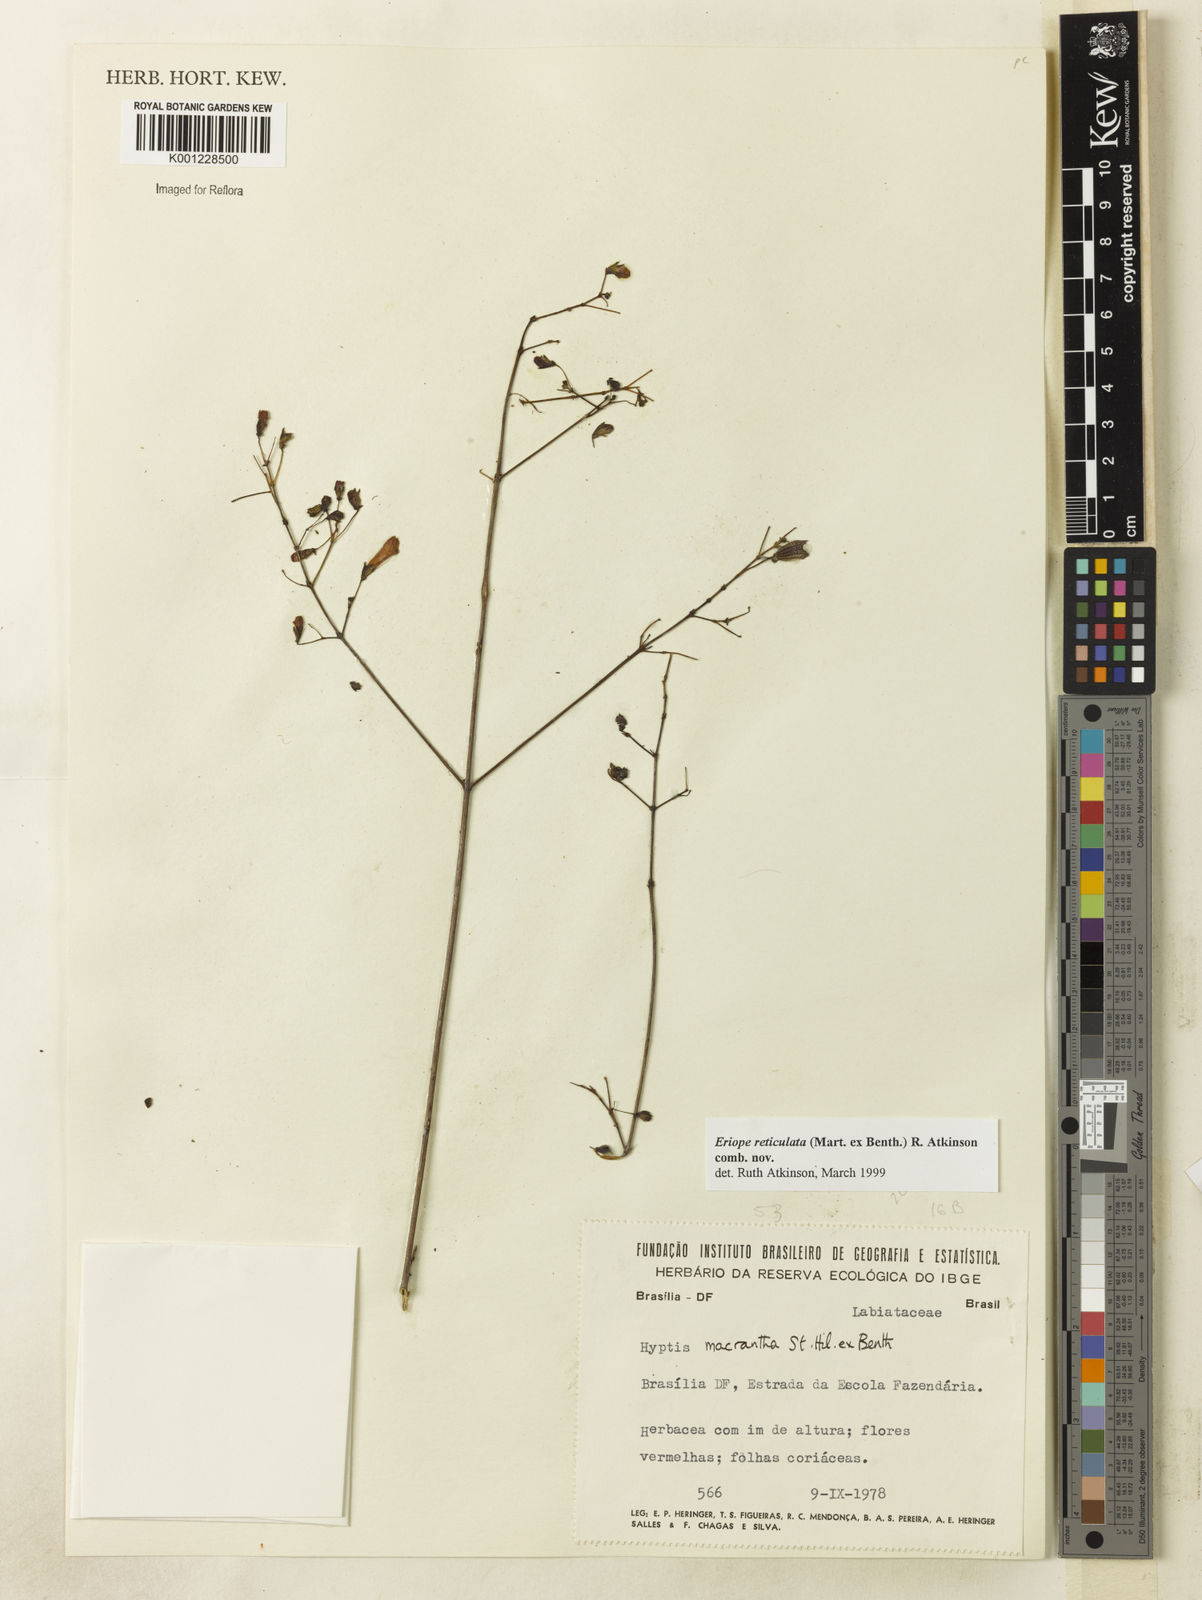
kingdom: Plantae
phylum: Tracheophyta
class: Magnoliopsida
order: Lamiales
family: Lamiaceae
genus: Hypenia
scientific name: Hypenia reticulata
